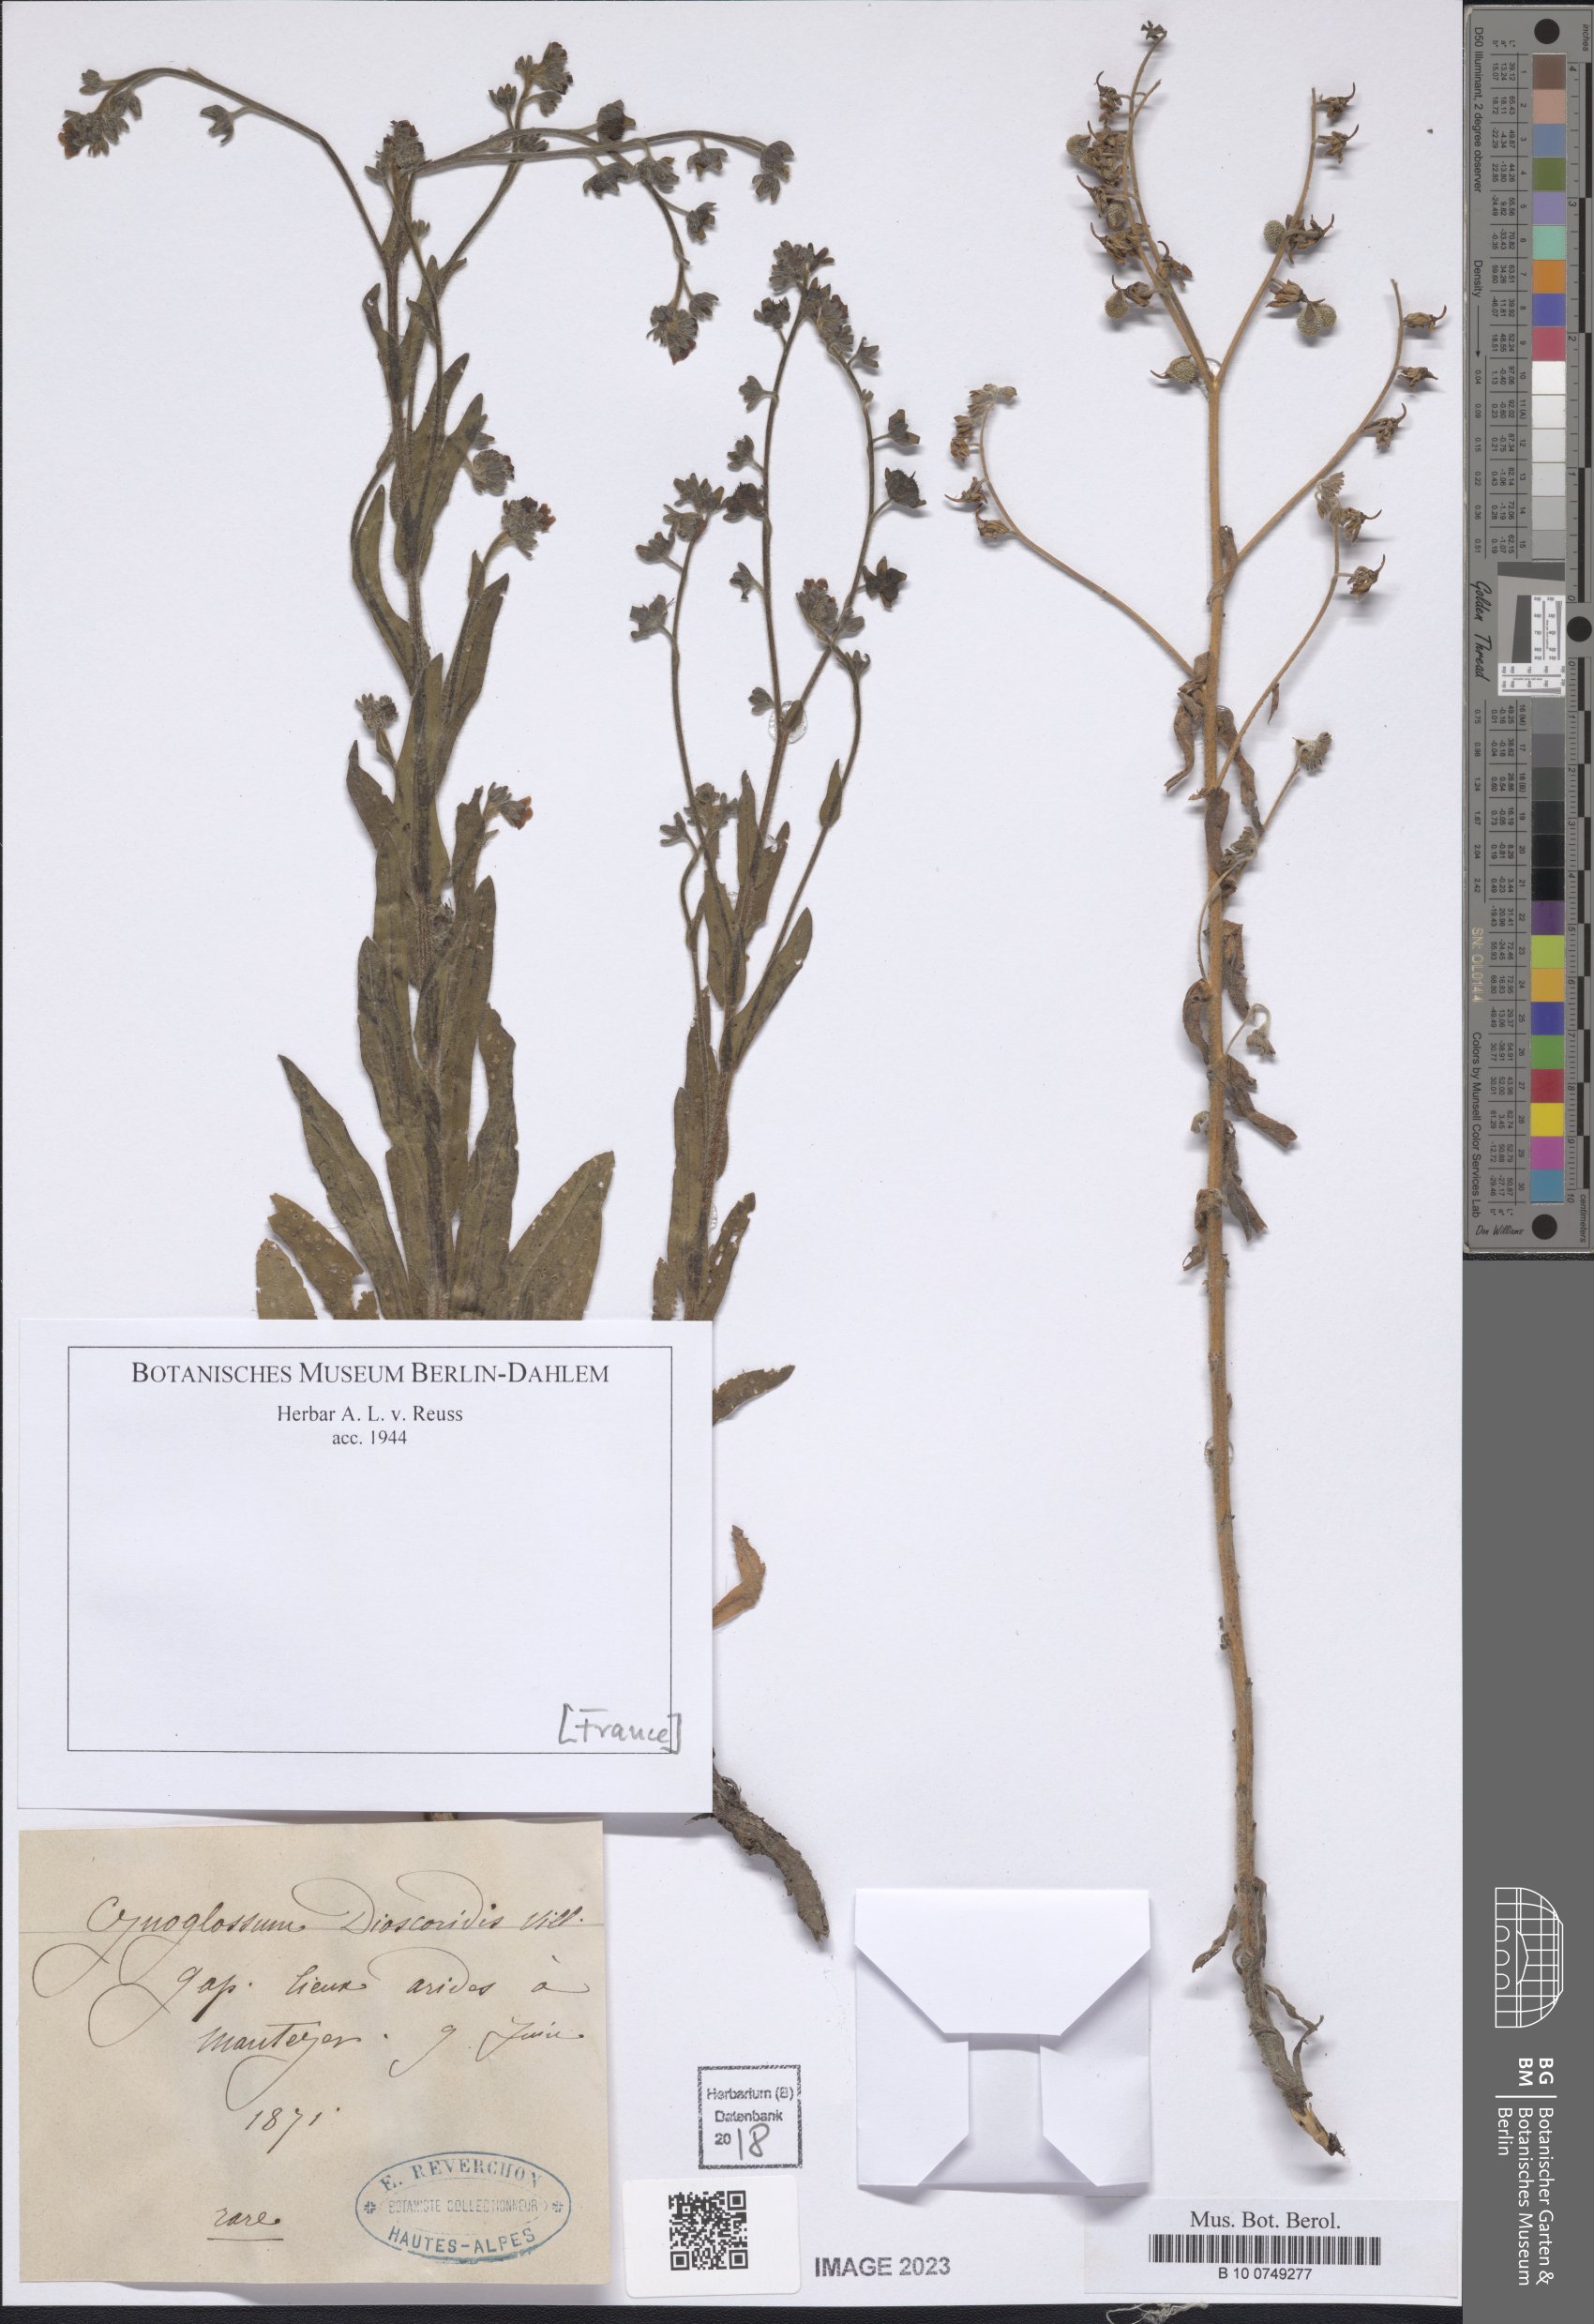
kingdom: Plantae
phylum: Tracheophyta
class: Magnoliopsida
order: Boraginales
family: Boraginaceae
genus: Cynoglossum
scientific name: Cynoglossum dioscoridis
